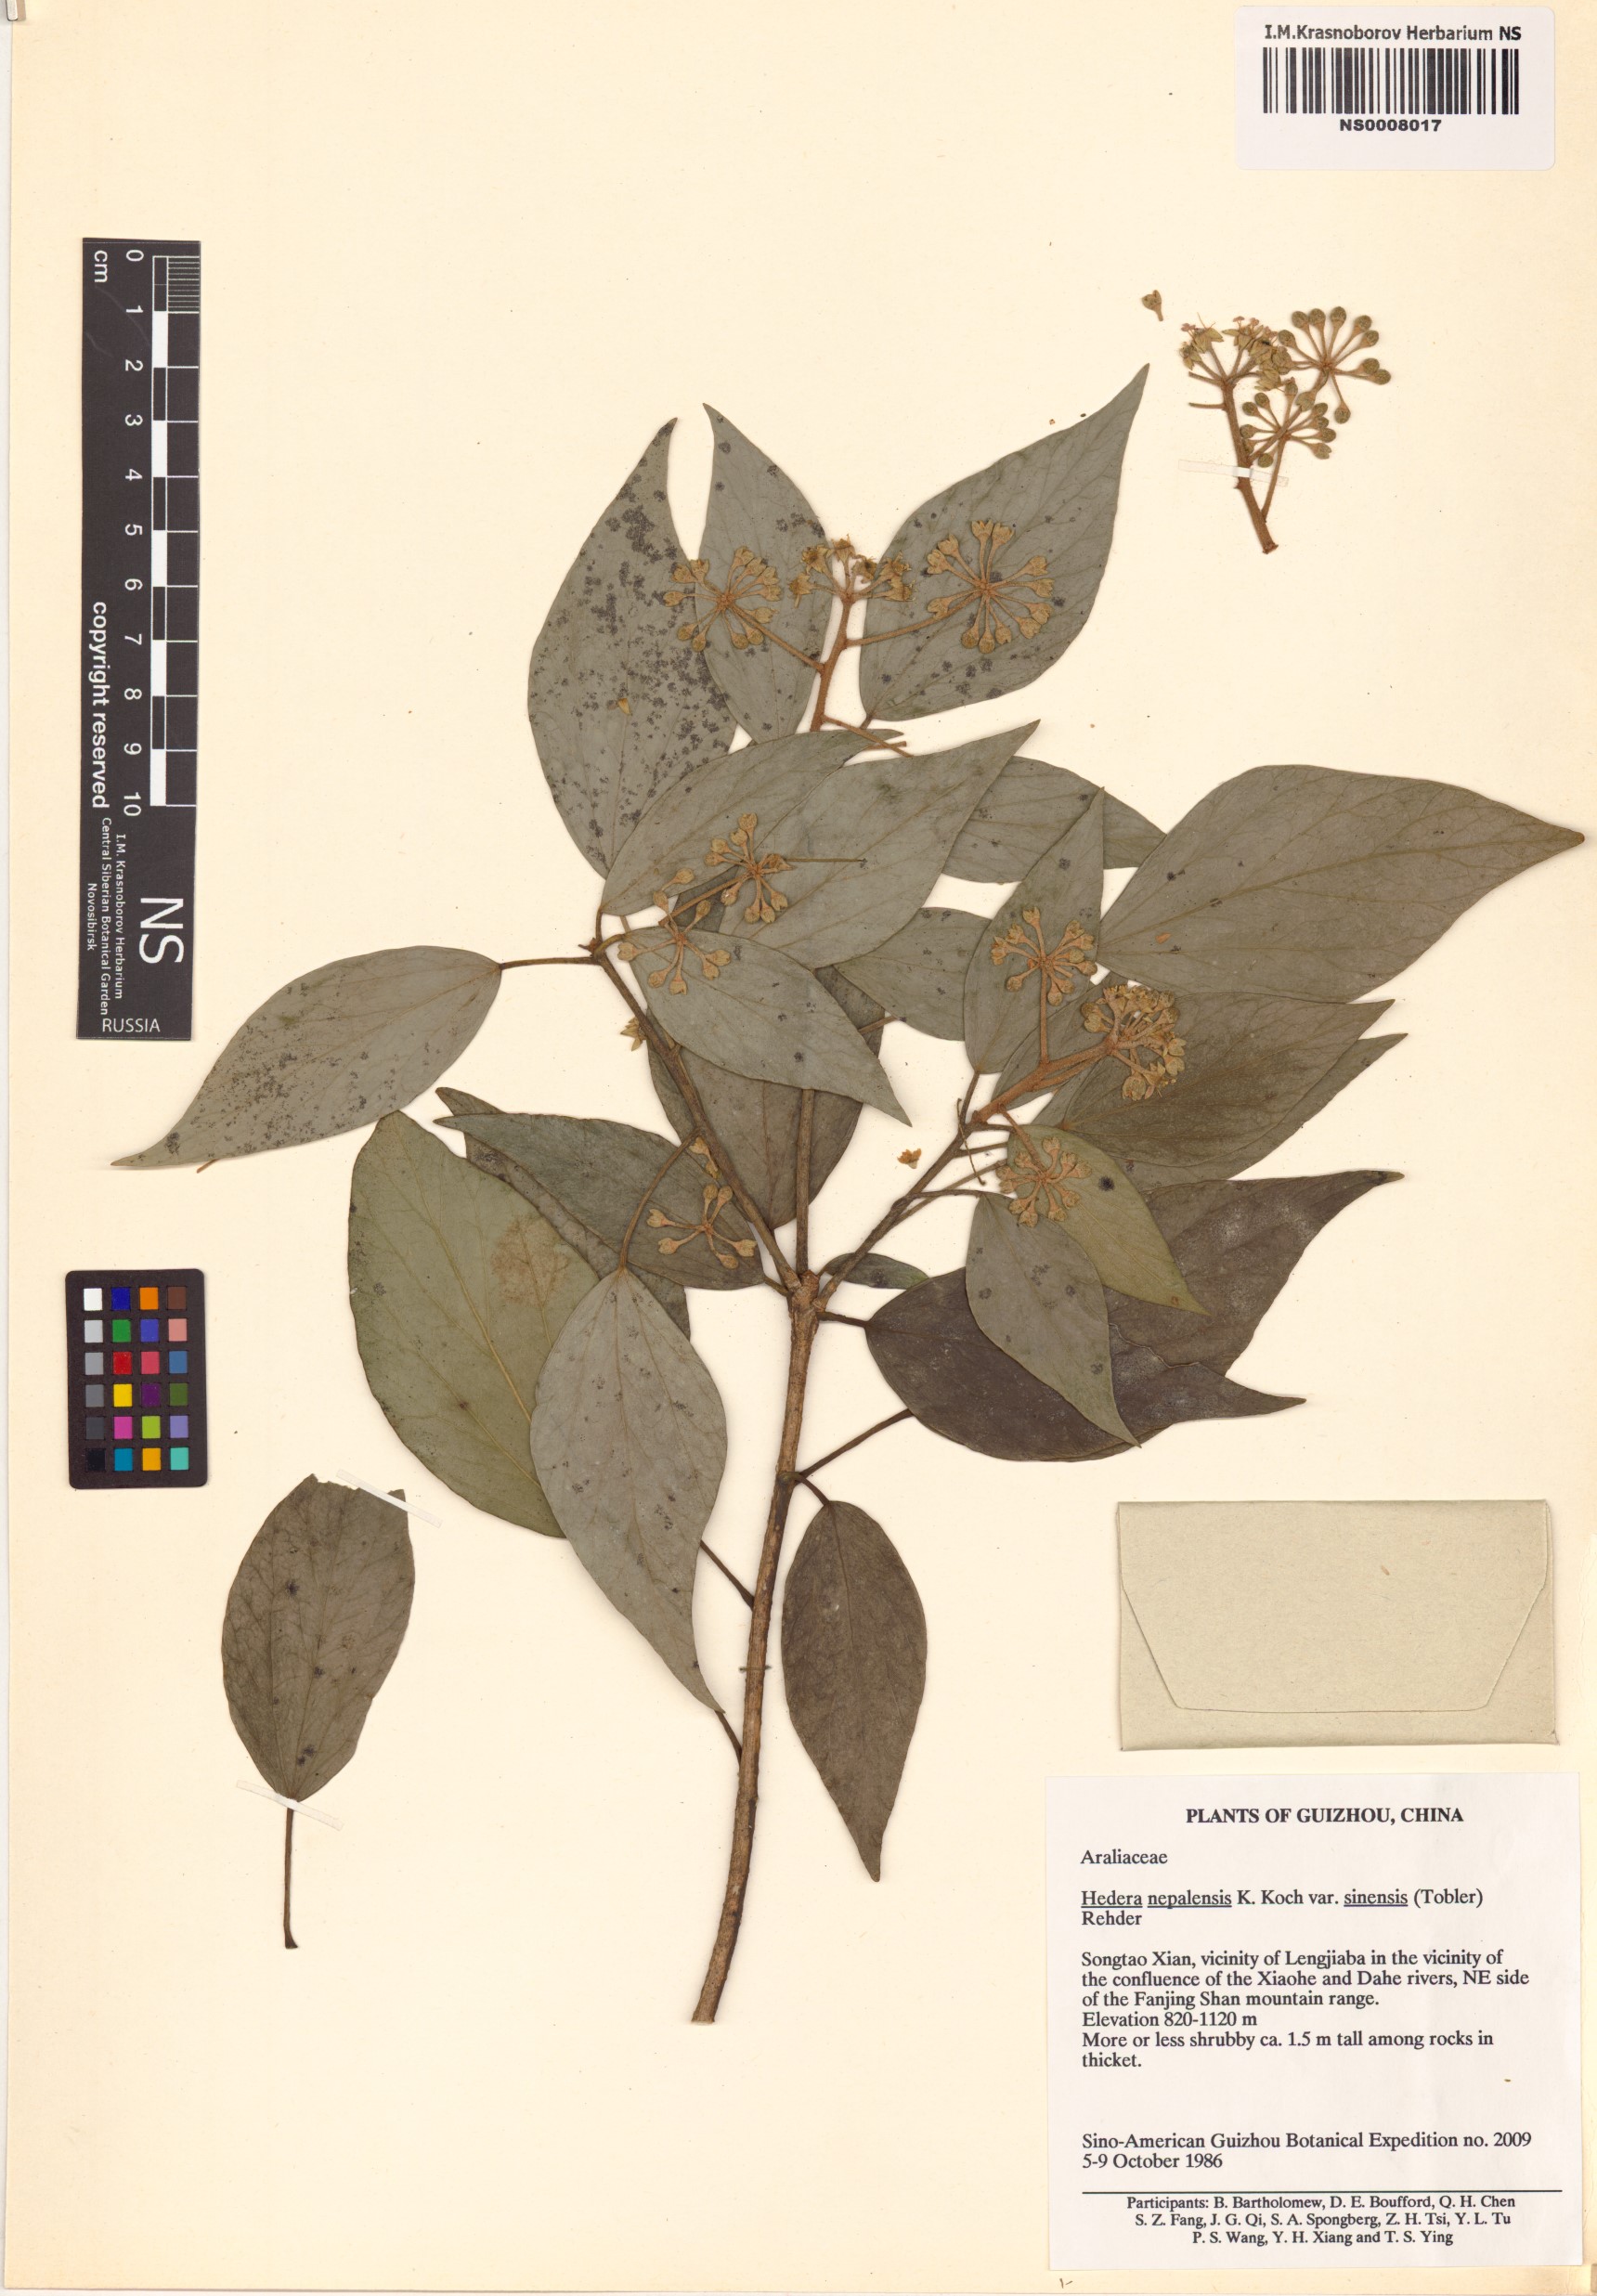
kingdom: Plantae
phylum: Tracheophyta
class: Magnoliopsida
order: Apiales
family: Araliaceae
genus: Hedera
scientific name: Hedera sinensis
